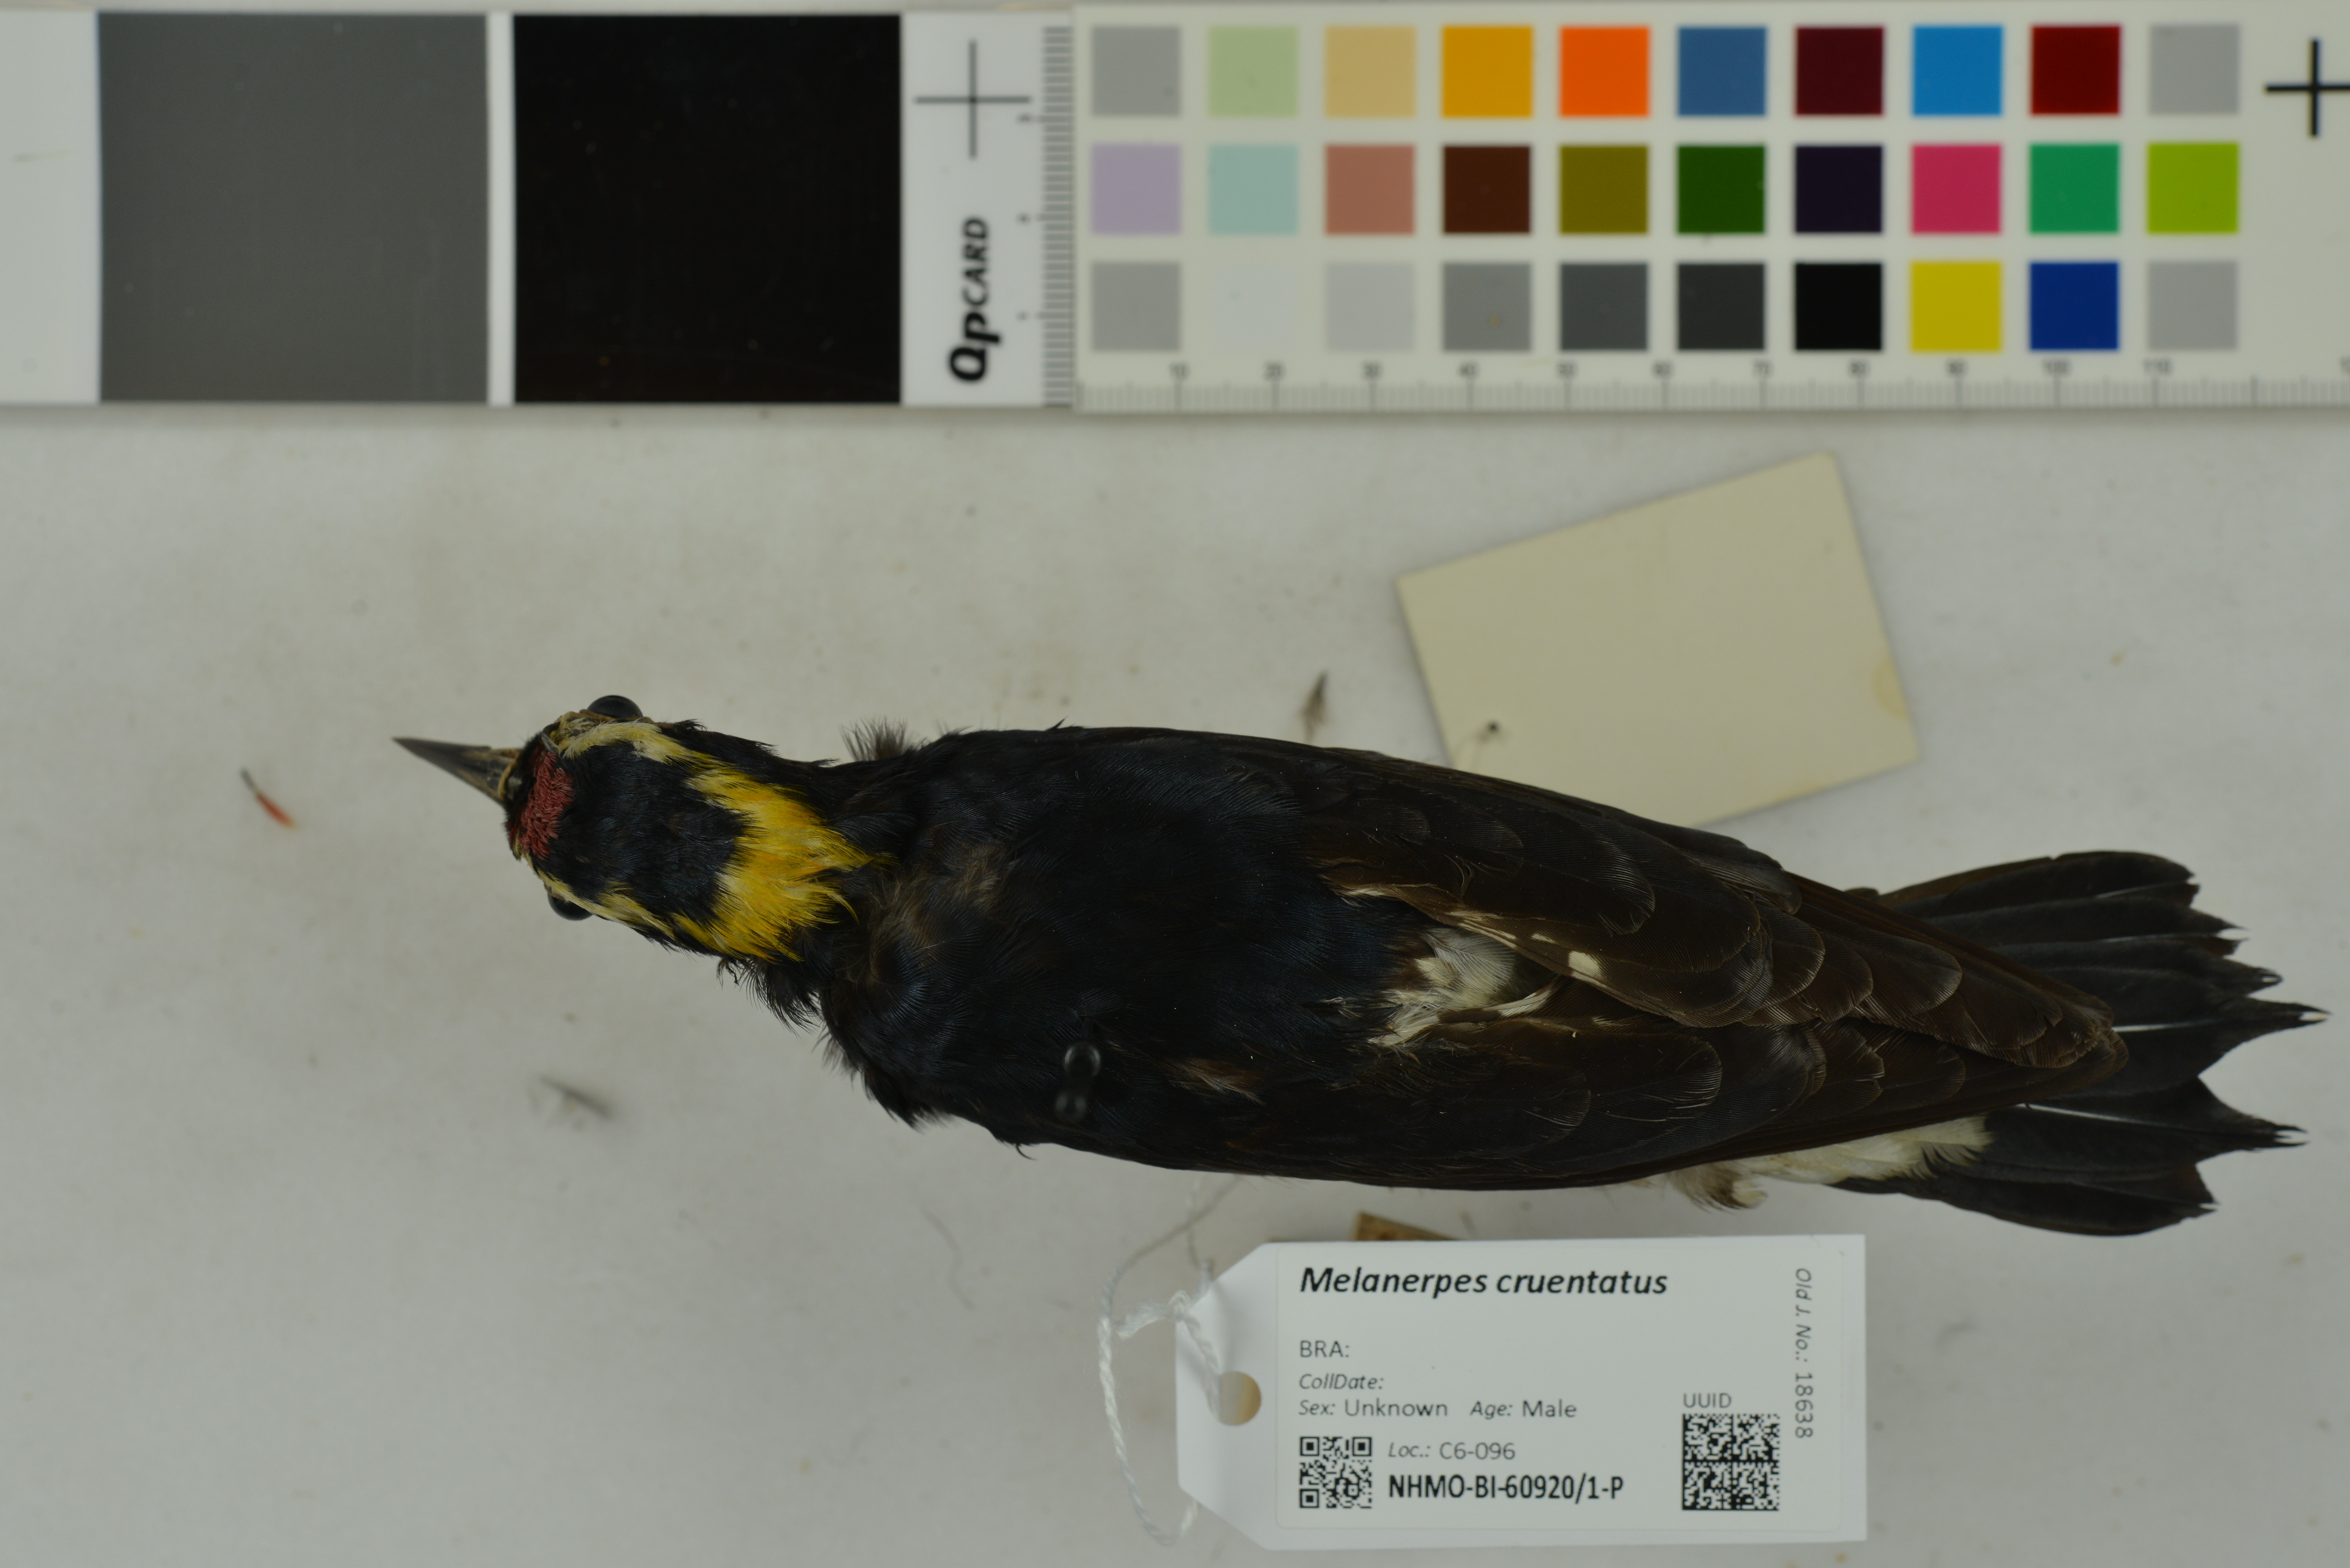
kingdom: Animalia
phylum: Chordata
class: Aves
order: Piciformes
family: Picidae
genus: Melanerpes
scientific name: Melanerpes cruentatus
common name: Yellow-tufted woodpecker
